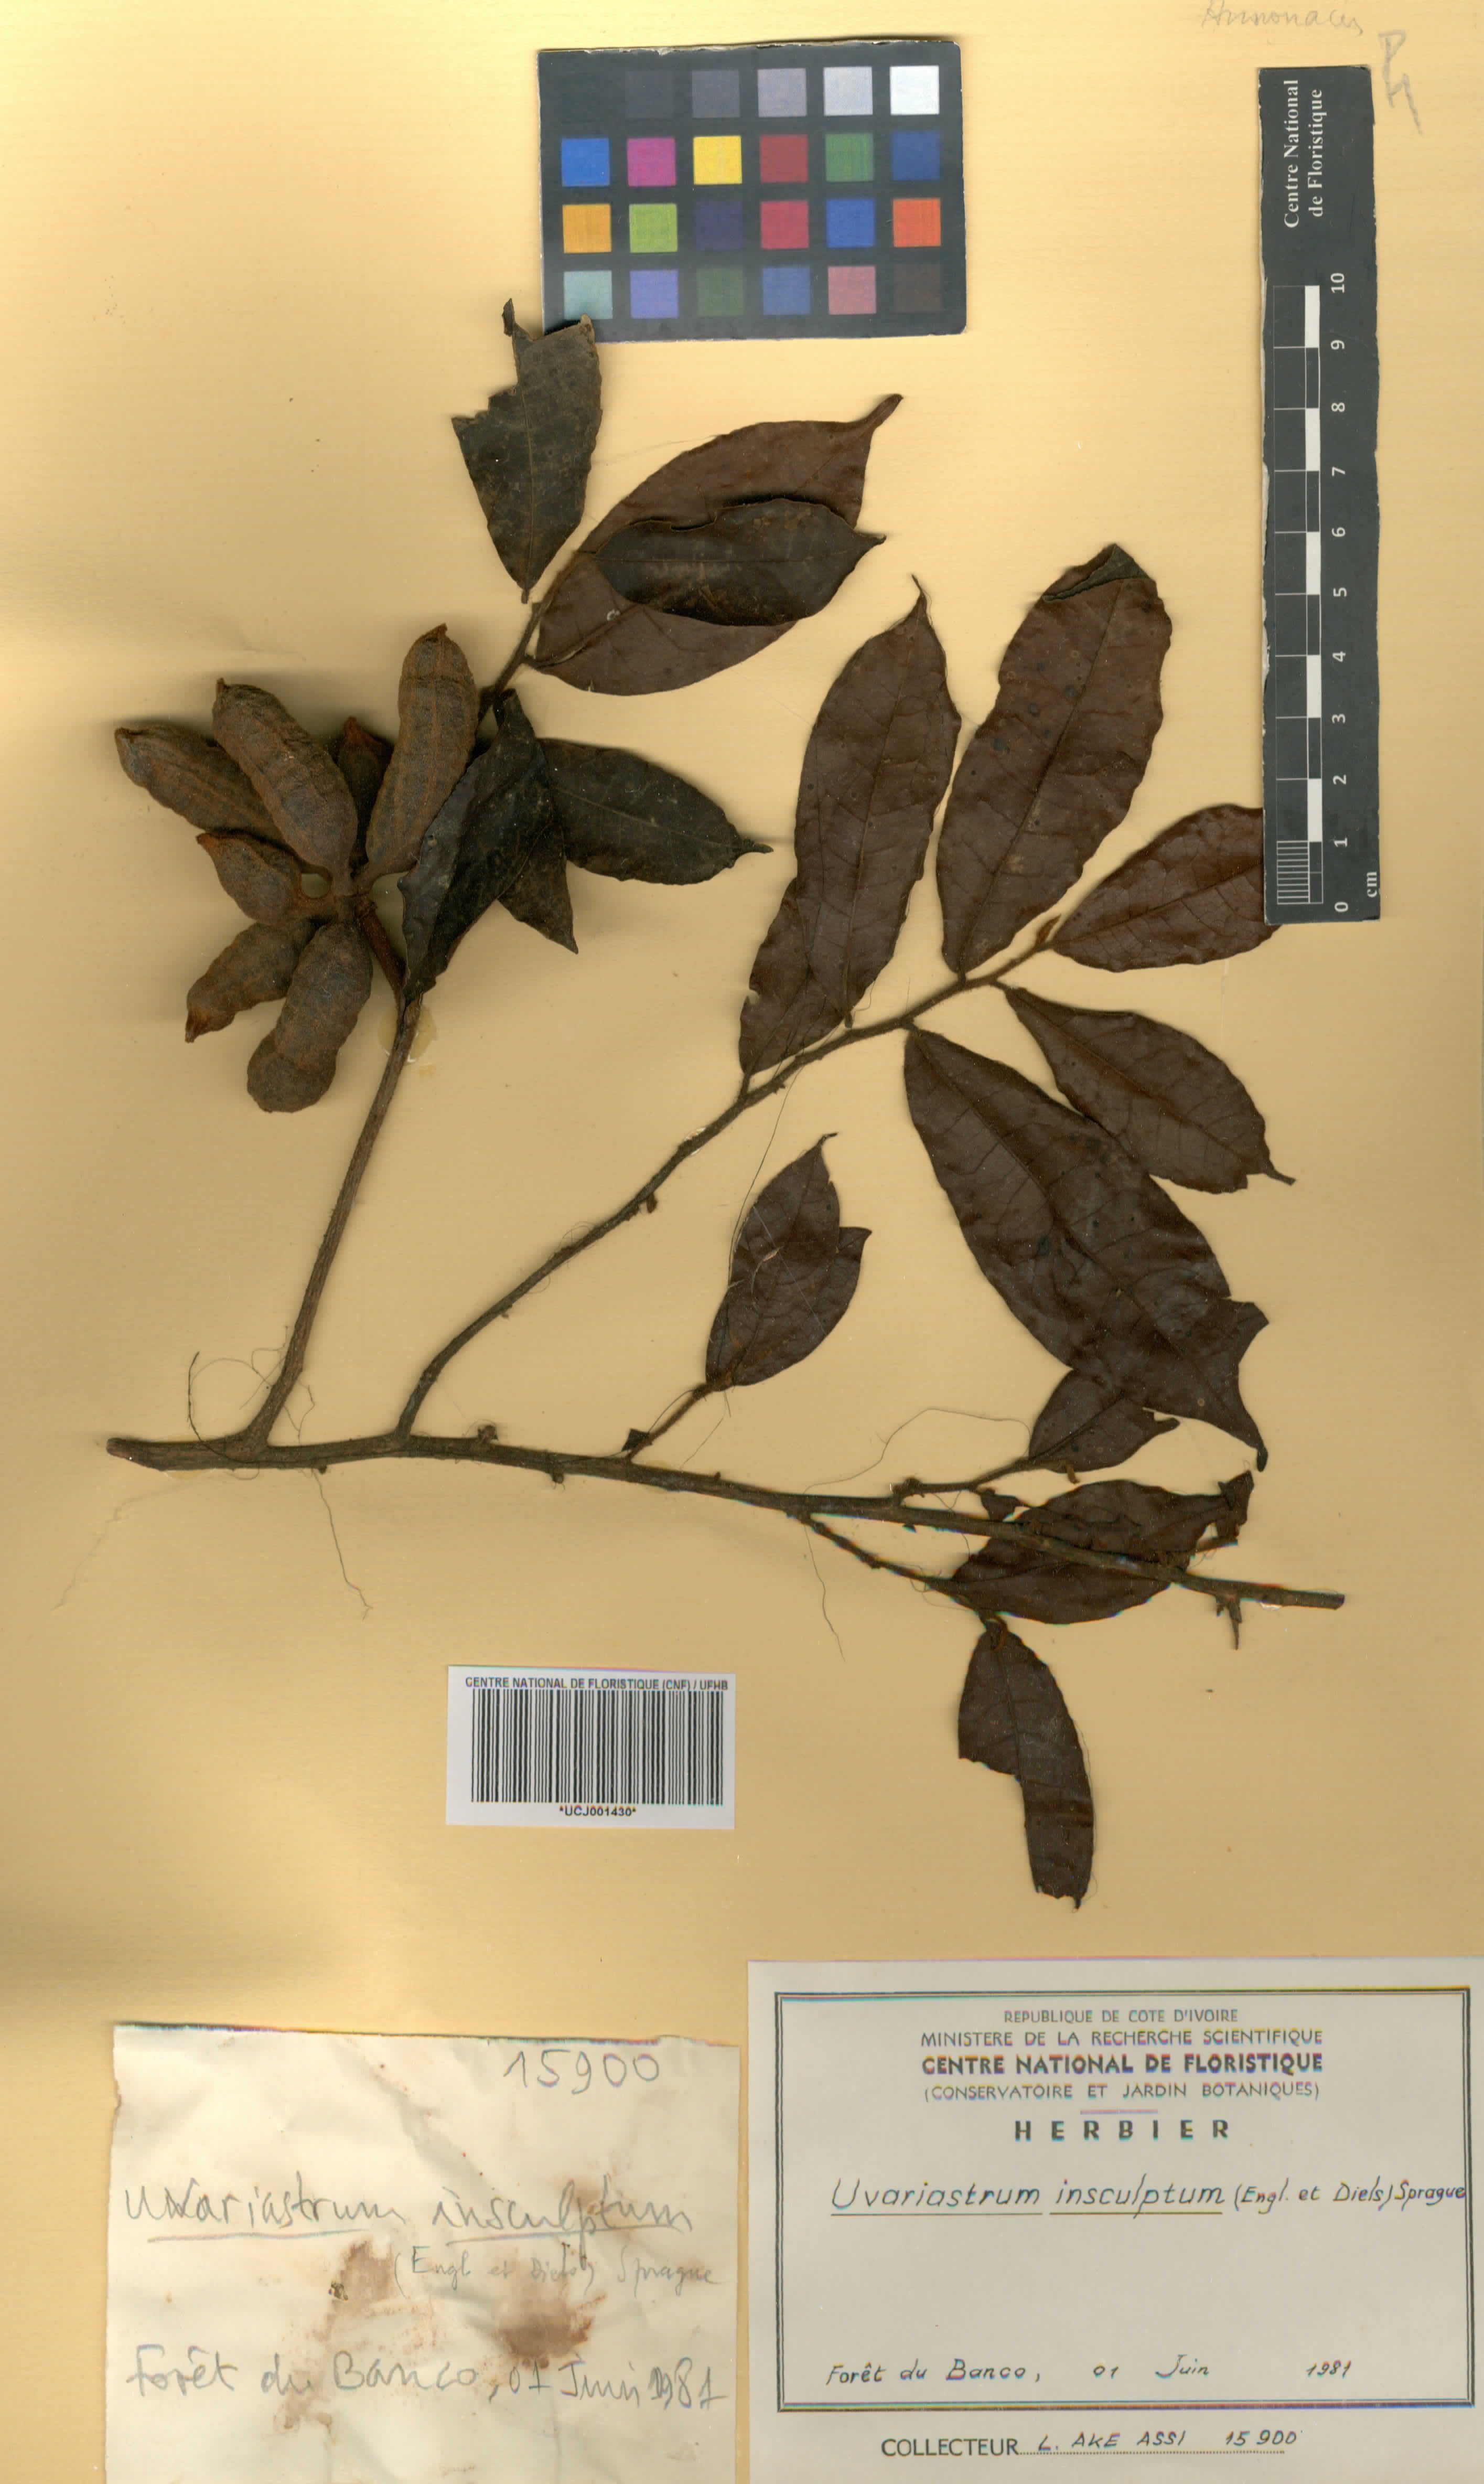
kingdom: Plantae
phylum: Tracheophyta
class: Magnoliopsida
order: Magnoliales
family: Annonaceae
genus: Uvariastrum
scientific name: Uvariastrum pierreanum
